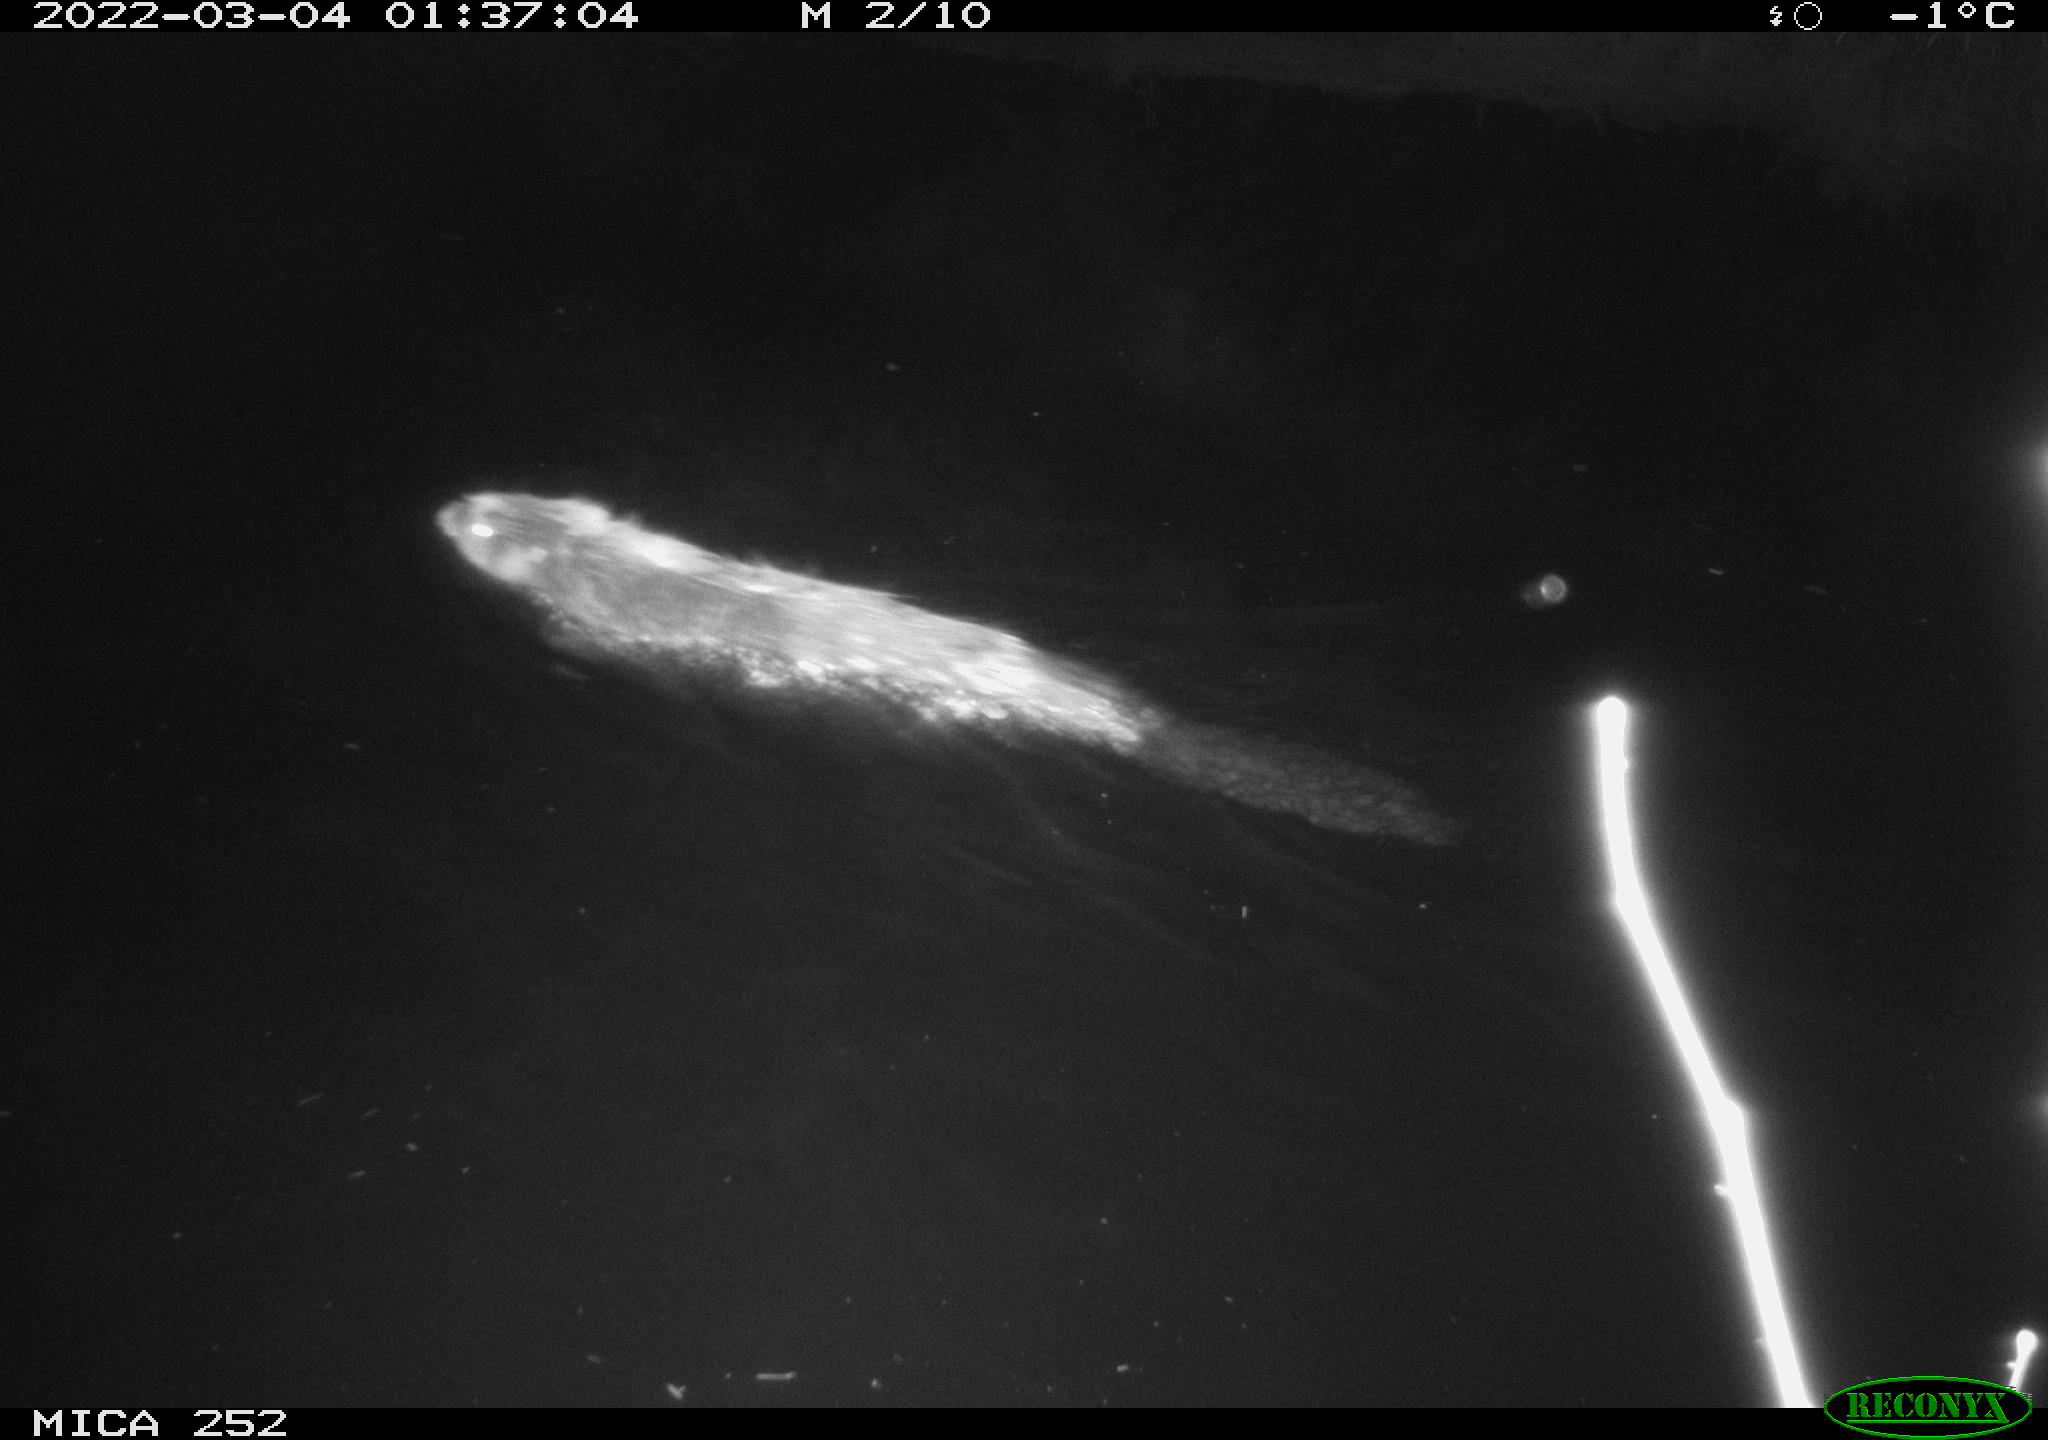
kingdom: Animalia
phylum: Chordata
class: Mammalia
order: Rodentia
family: Castoridae
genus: Castor
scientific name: Castor fiber
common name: Eurasian beaver
